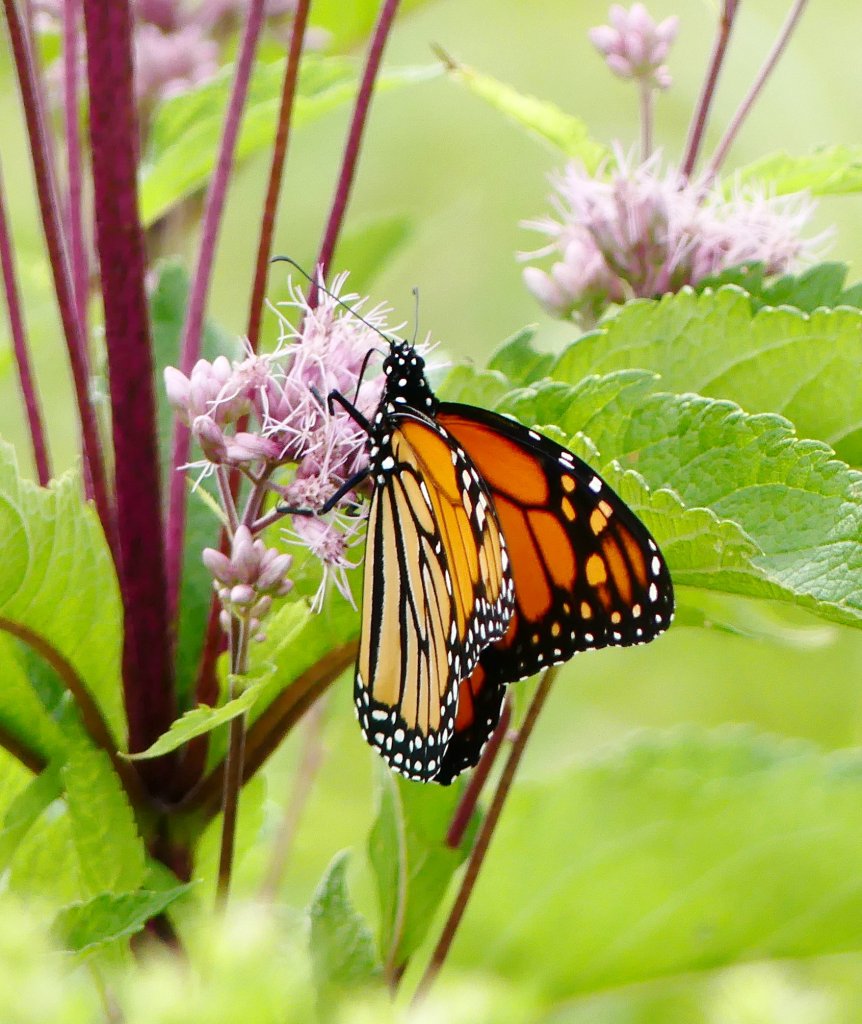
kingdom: Animalia
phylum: Arthropoda
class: Insecta
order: Lepidoptera
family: Nymphalidae
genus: Danaus
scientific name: Danaus plexippus
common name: Monarch
